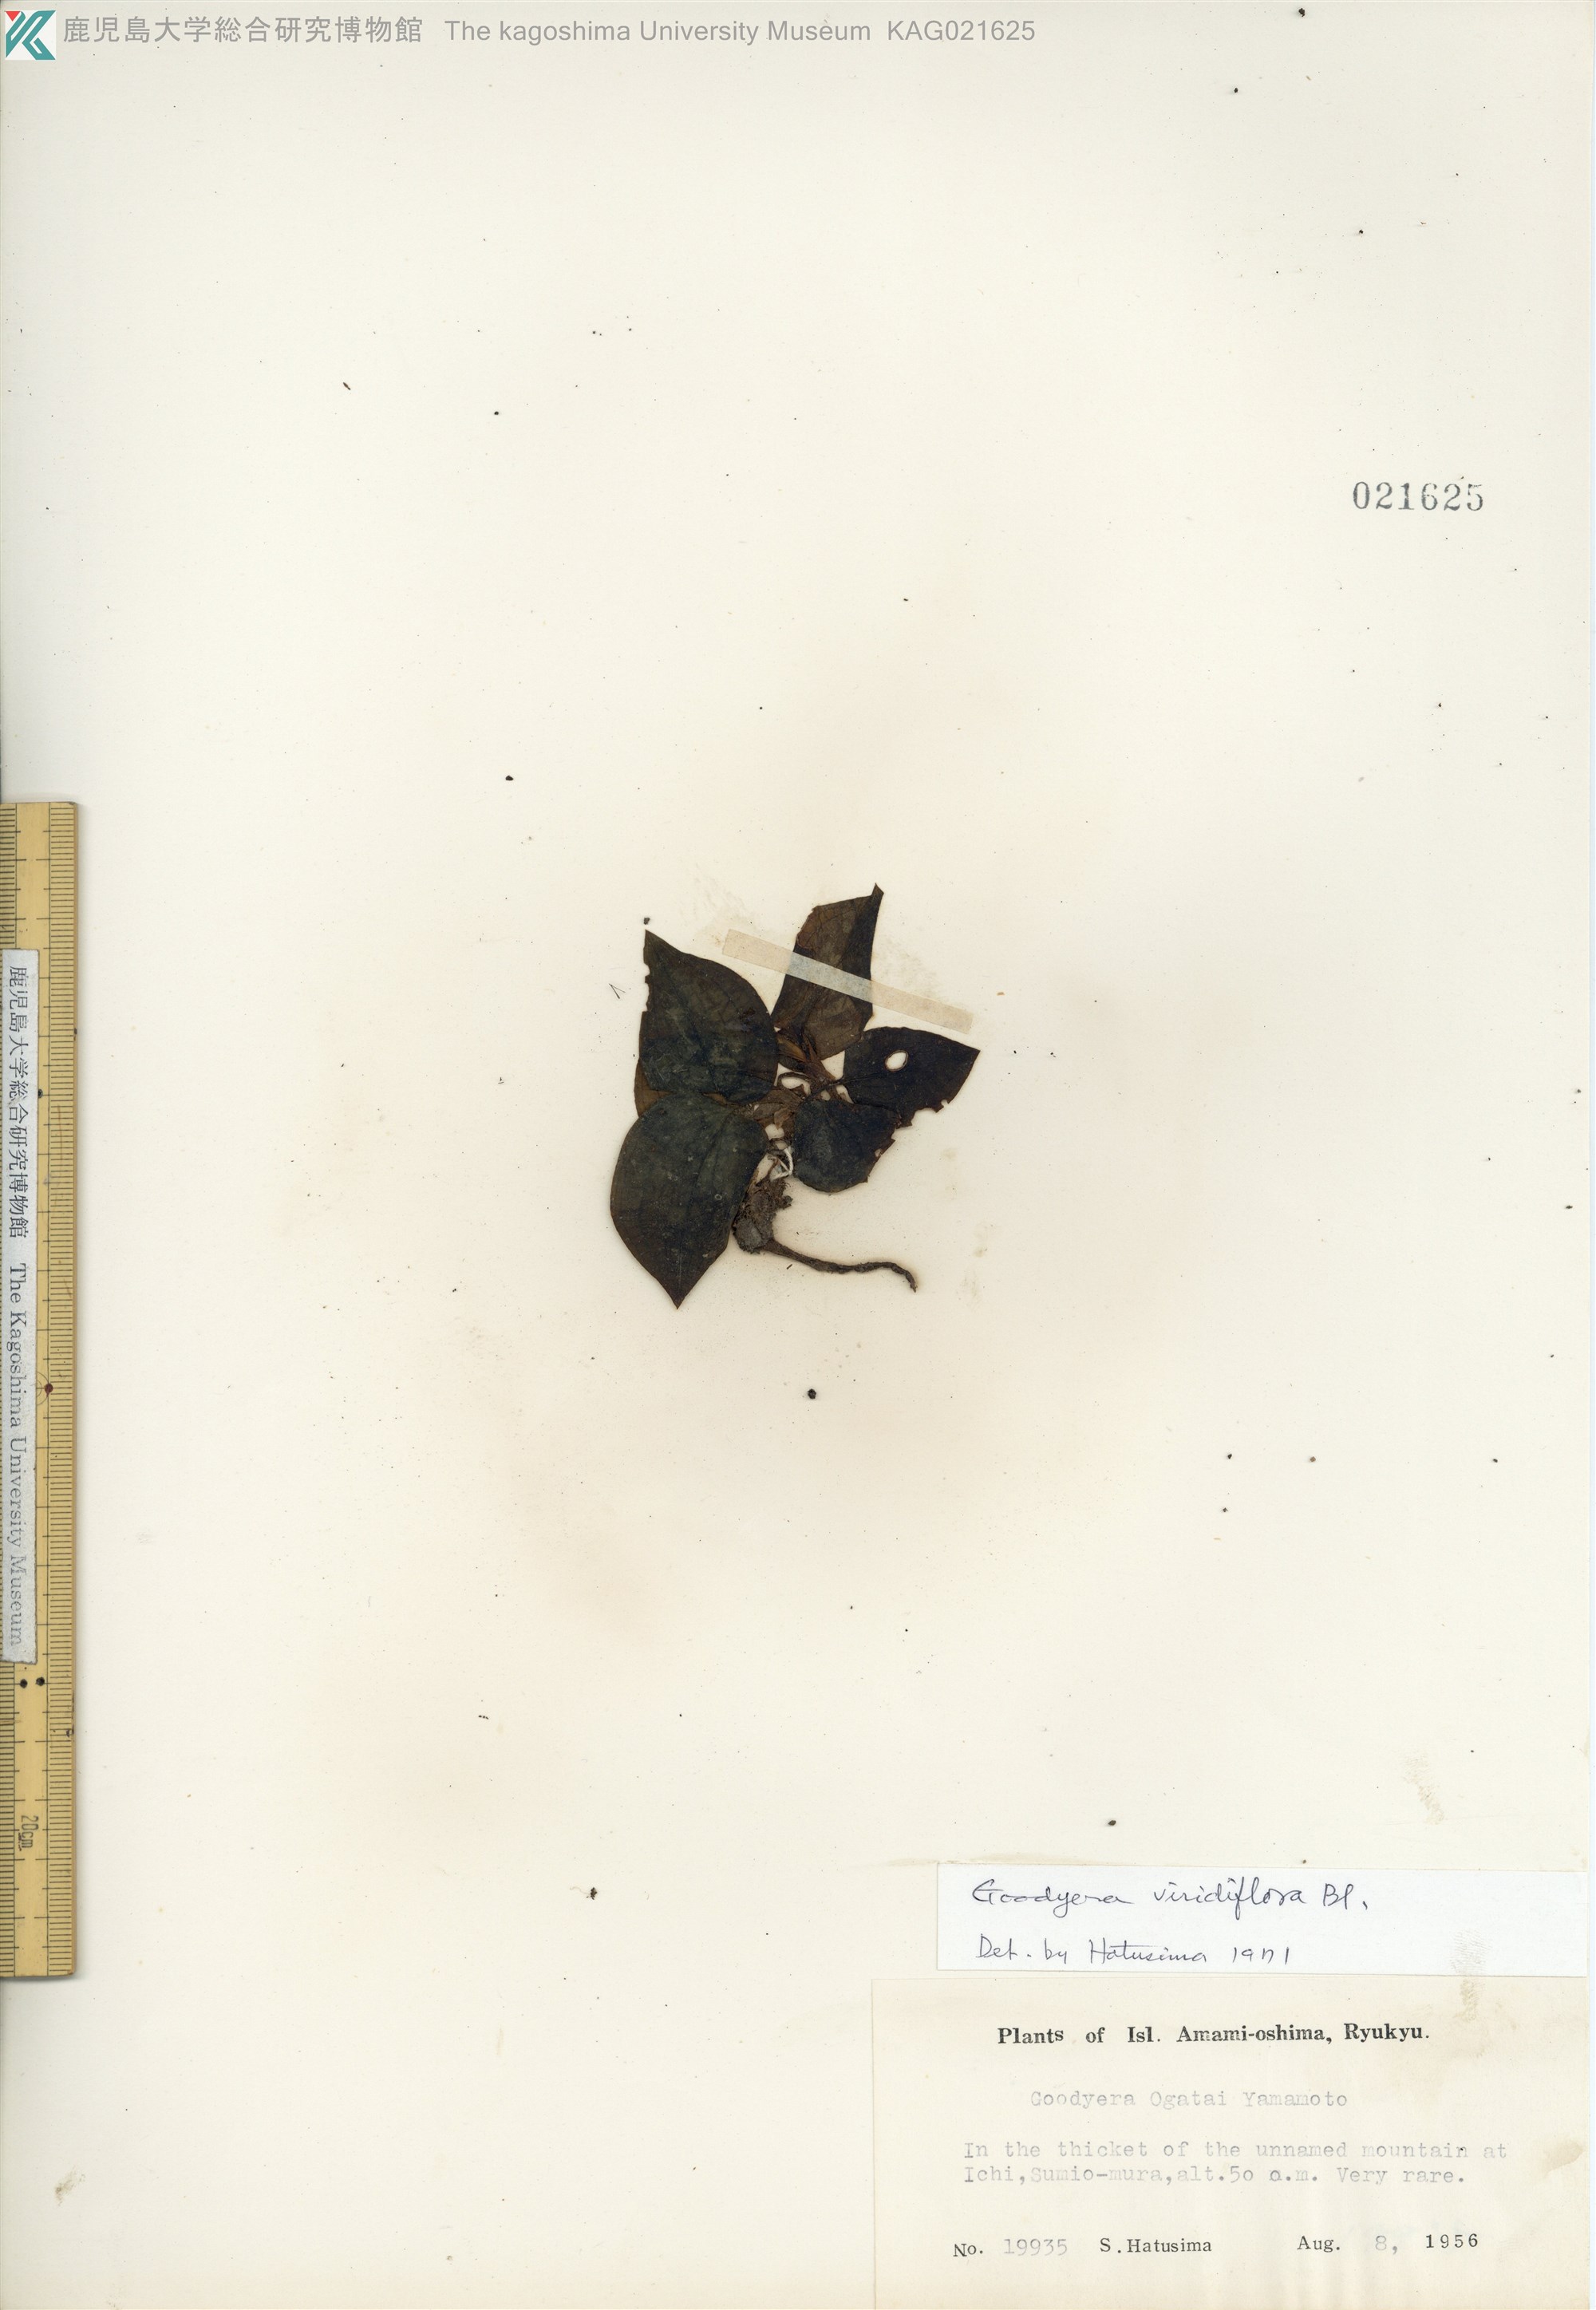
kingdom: Plantae
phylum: Tracheophyta
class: Liliopsida
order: Asparagales
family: Orchidaceae
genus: Goodyera
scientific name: Goodyera viridiflora
